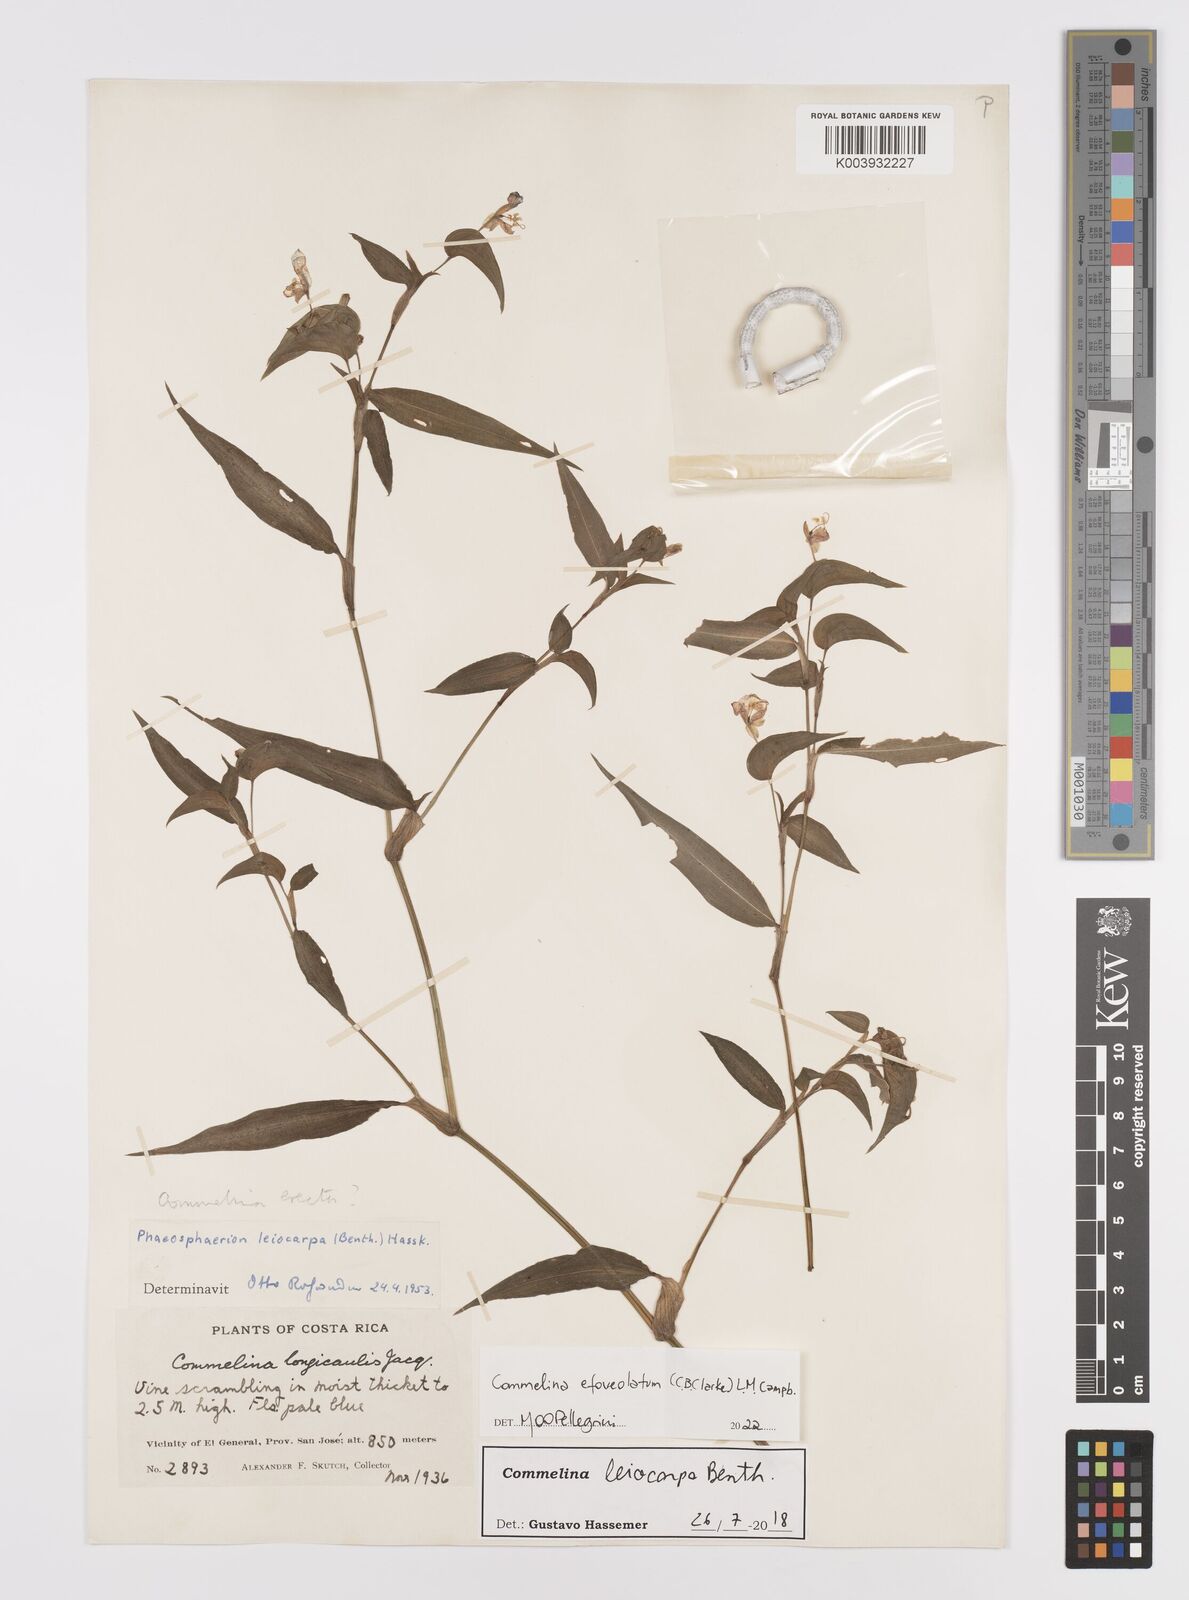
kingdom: Plantae
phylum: Tracheophyta
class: Liliopsida
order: Commelinales
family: Commelinaceae
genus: Commelina
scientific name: Commelina leiocarpa
